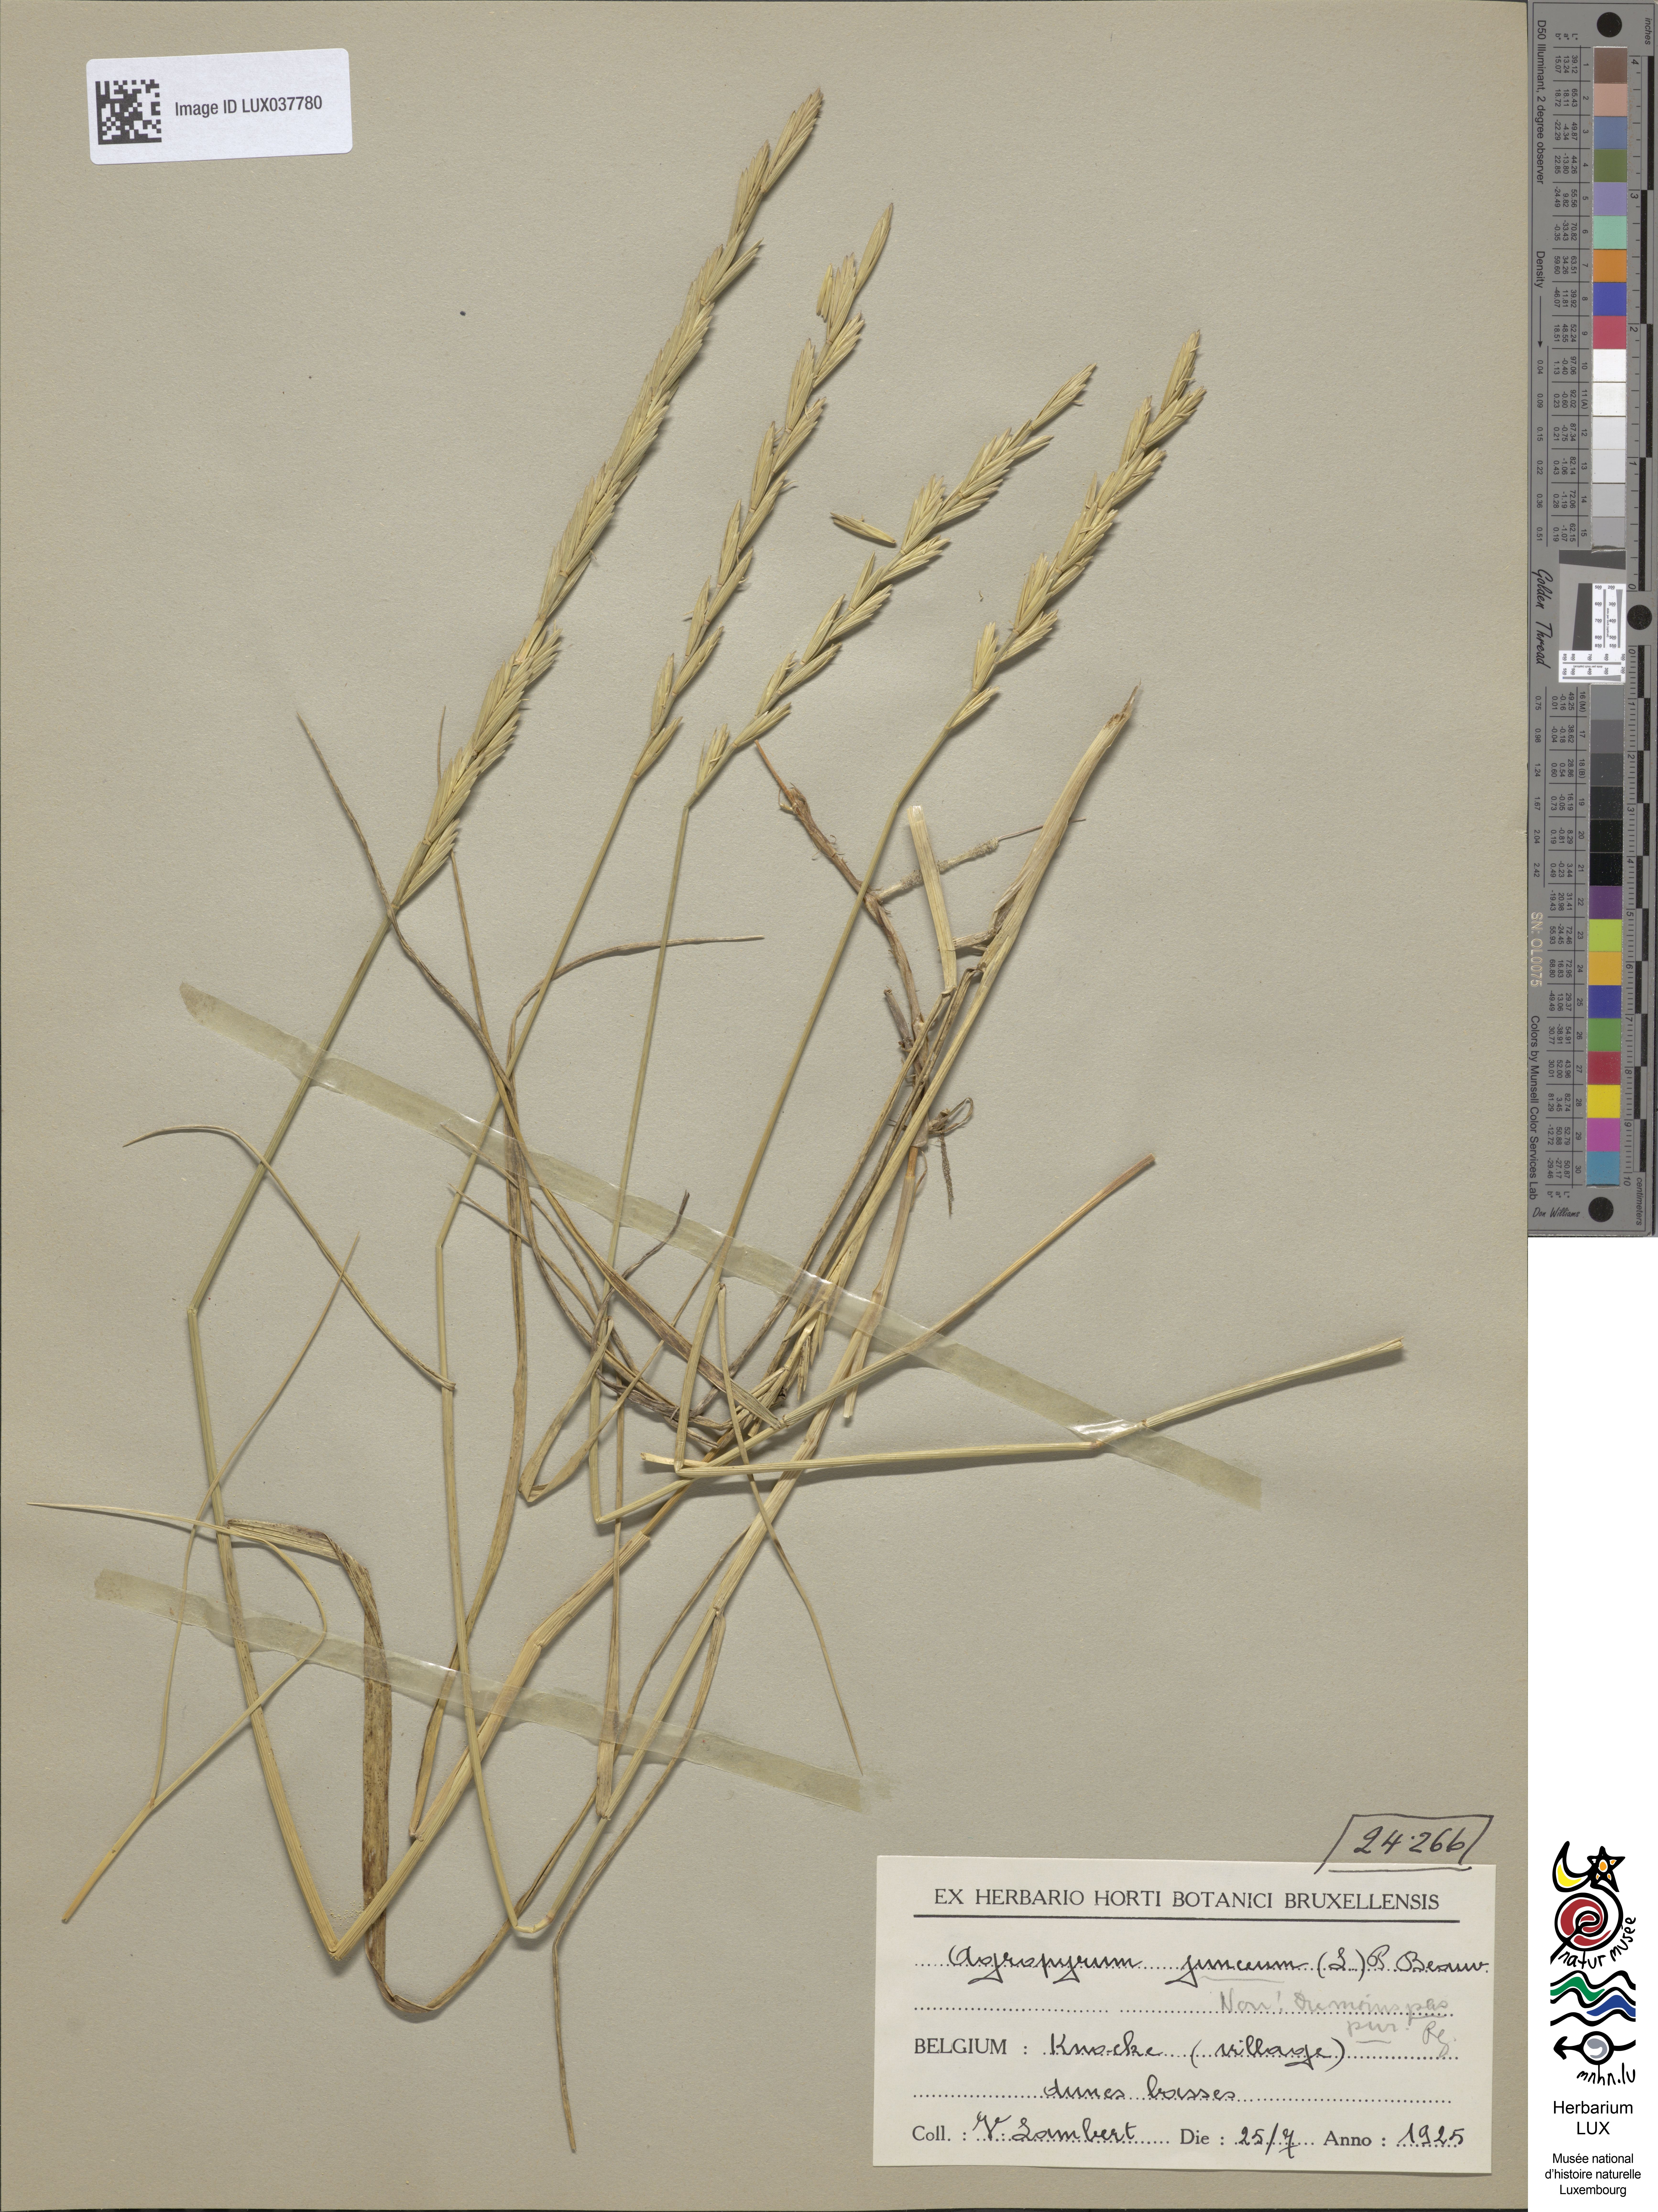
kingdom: Plantae
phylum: Tracheophyta
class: Liliopsida
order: Poales
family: Poaceae
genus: Thinopyrum
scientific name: Thinopyrum junceum
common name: Russian wheatgrass
